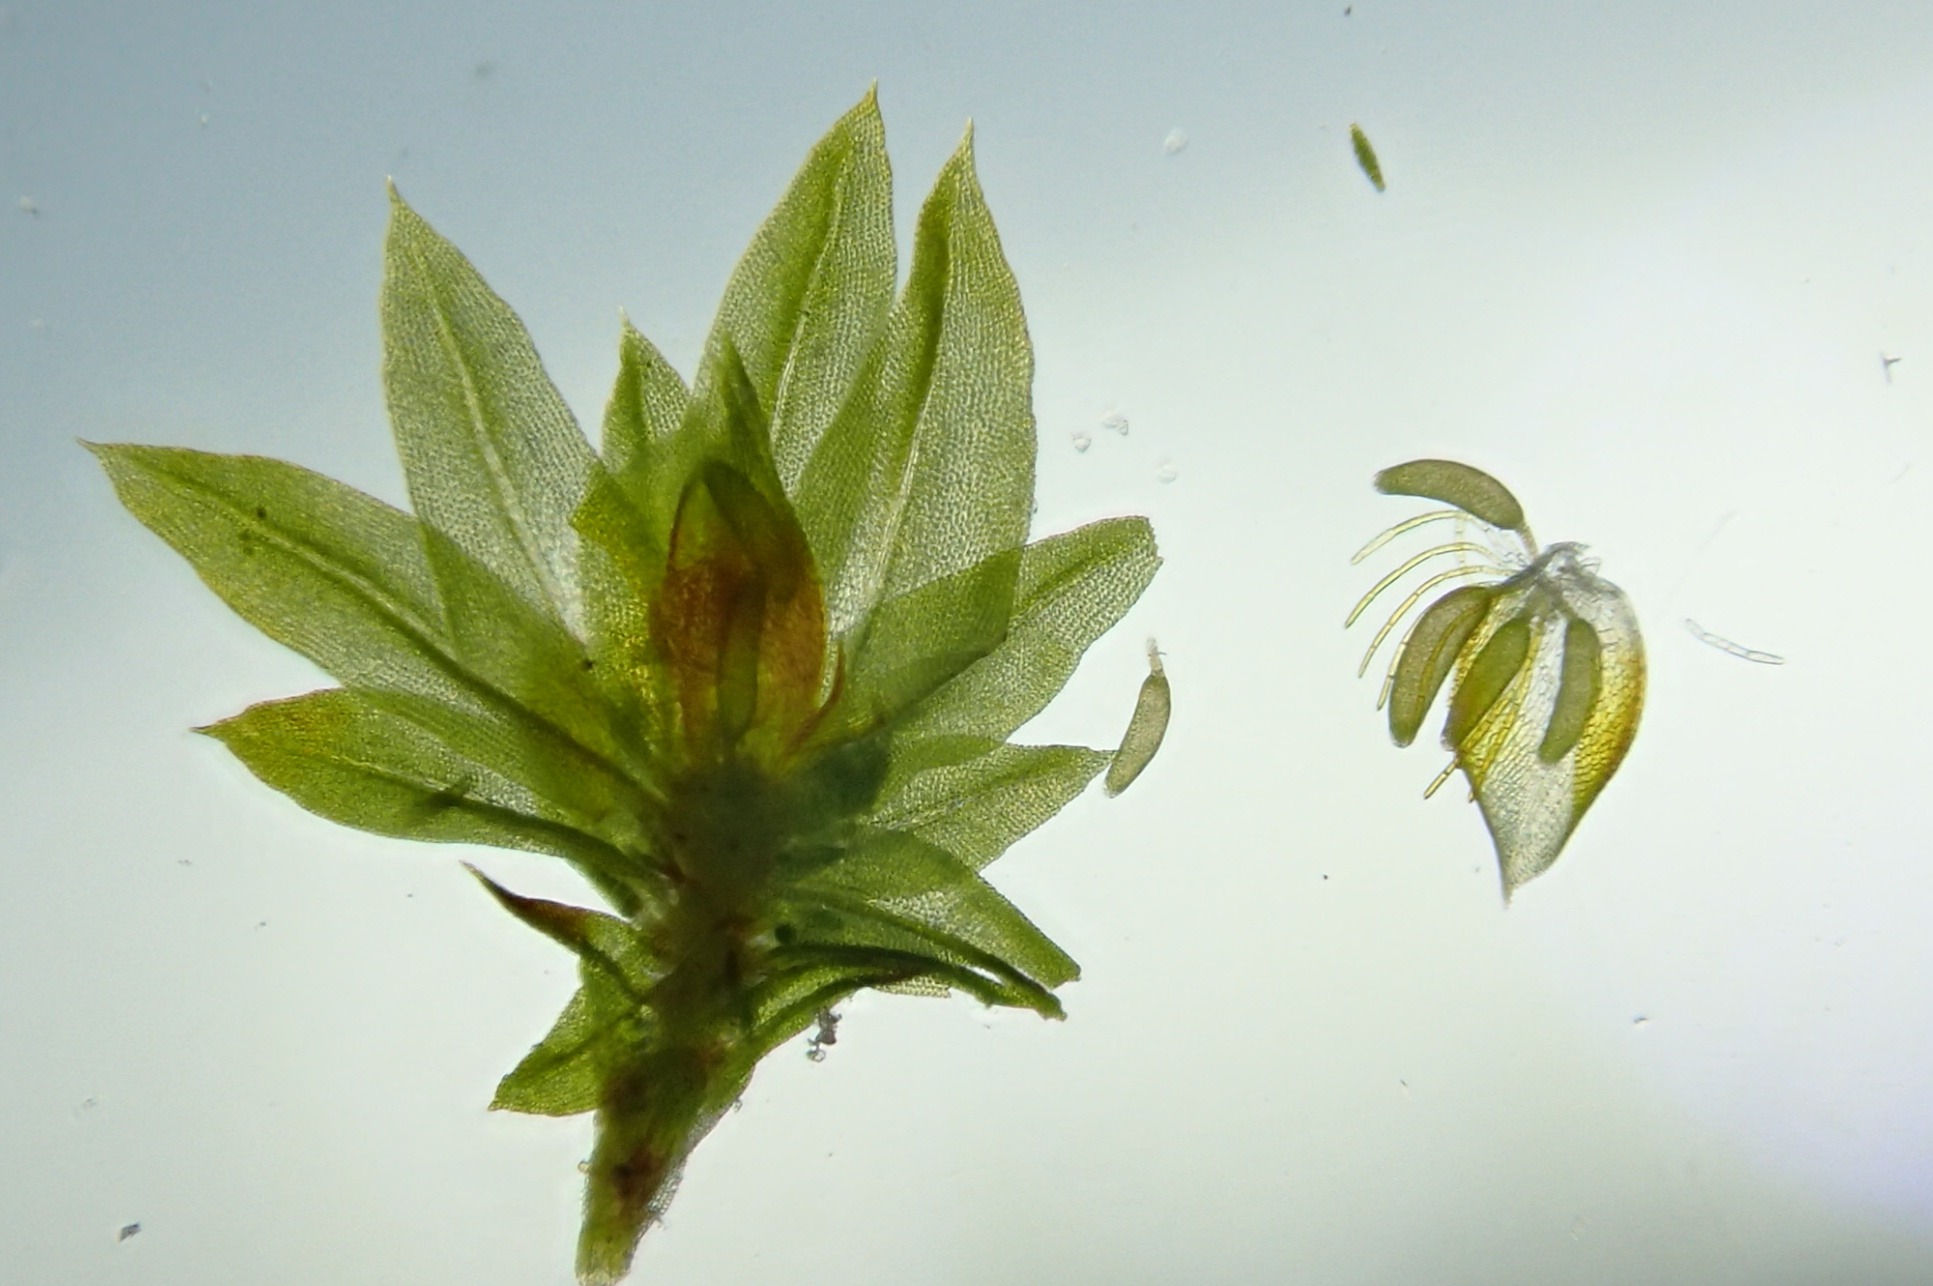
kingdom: Plantae
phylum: Bryophyta
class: Bryopsida
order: Orthotrichales
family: Orthotrichaceae
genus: Zygodon
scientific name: Zygodon conoideus
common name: Tand-køllemos
